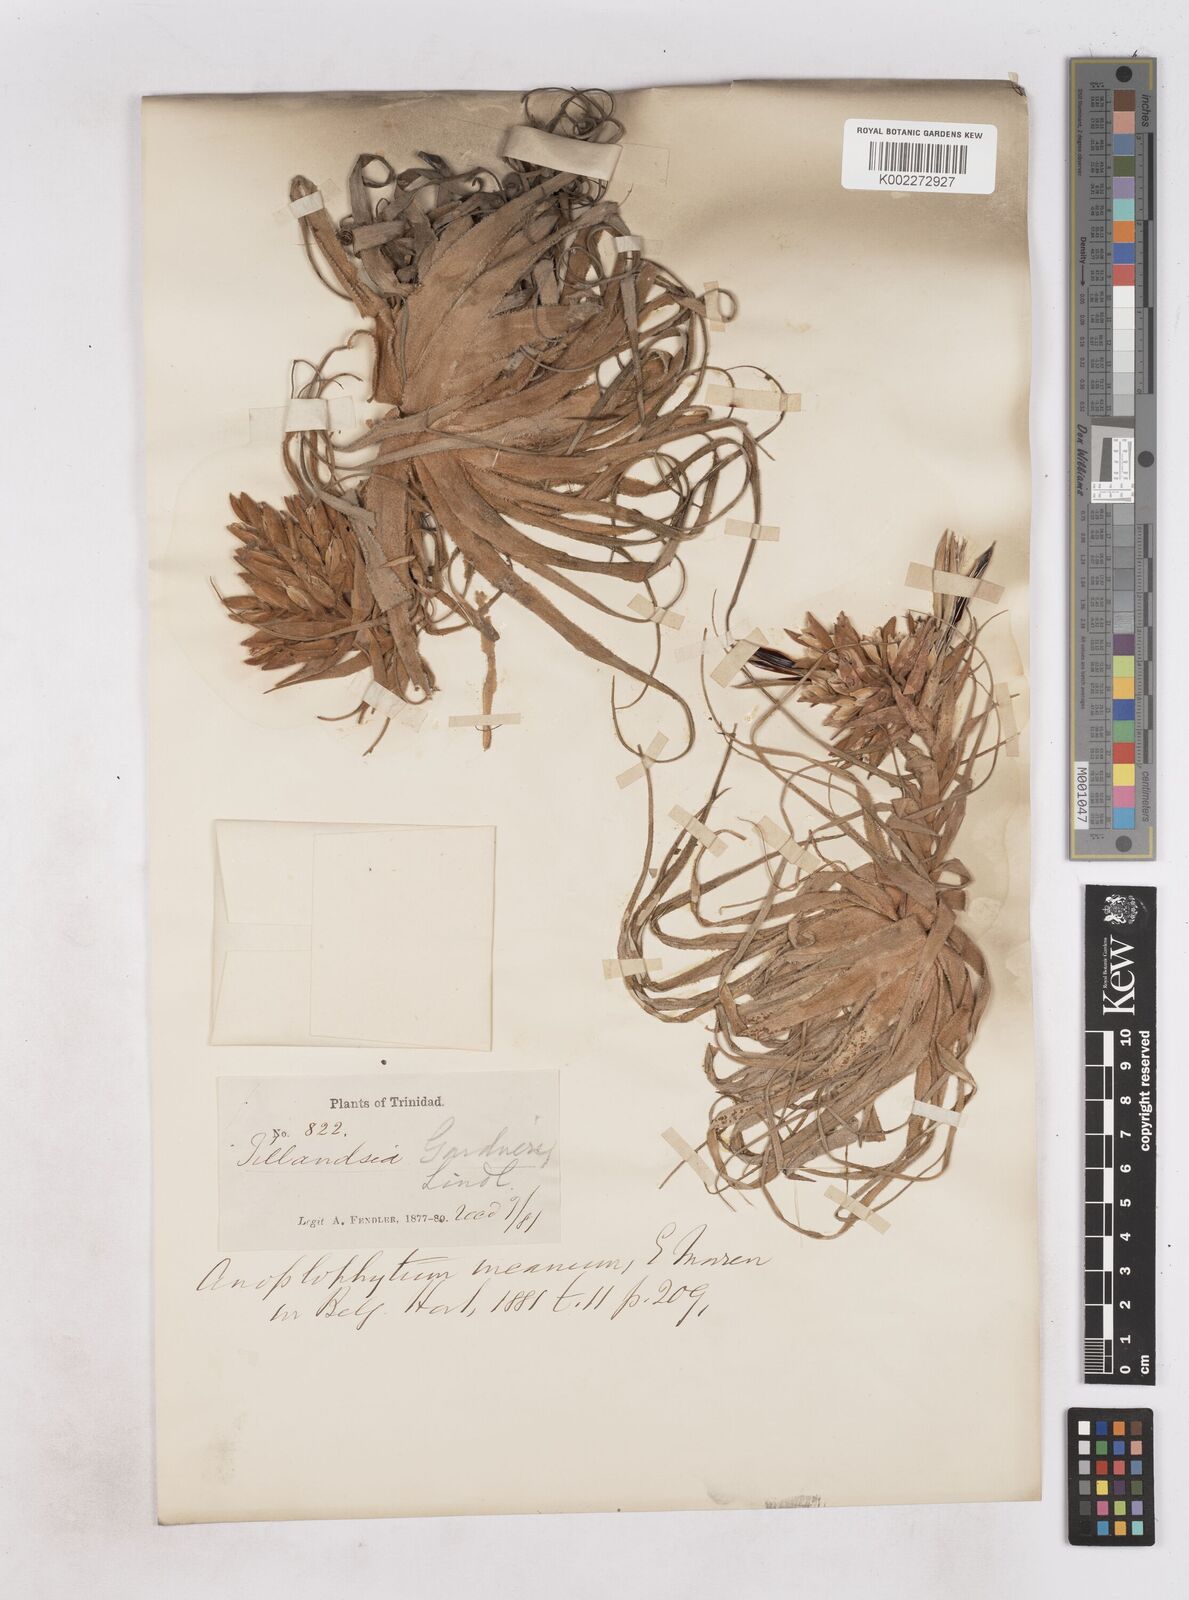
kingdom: Plantae
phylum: Tracheophyta
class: Liliopsida
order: Poales
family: Bromeliaceae
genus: Tillandsia
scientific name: Tillandsia gardneri
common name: Airplant
